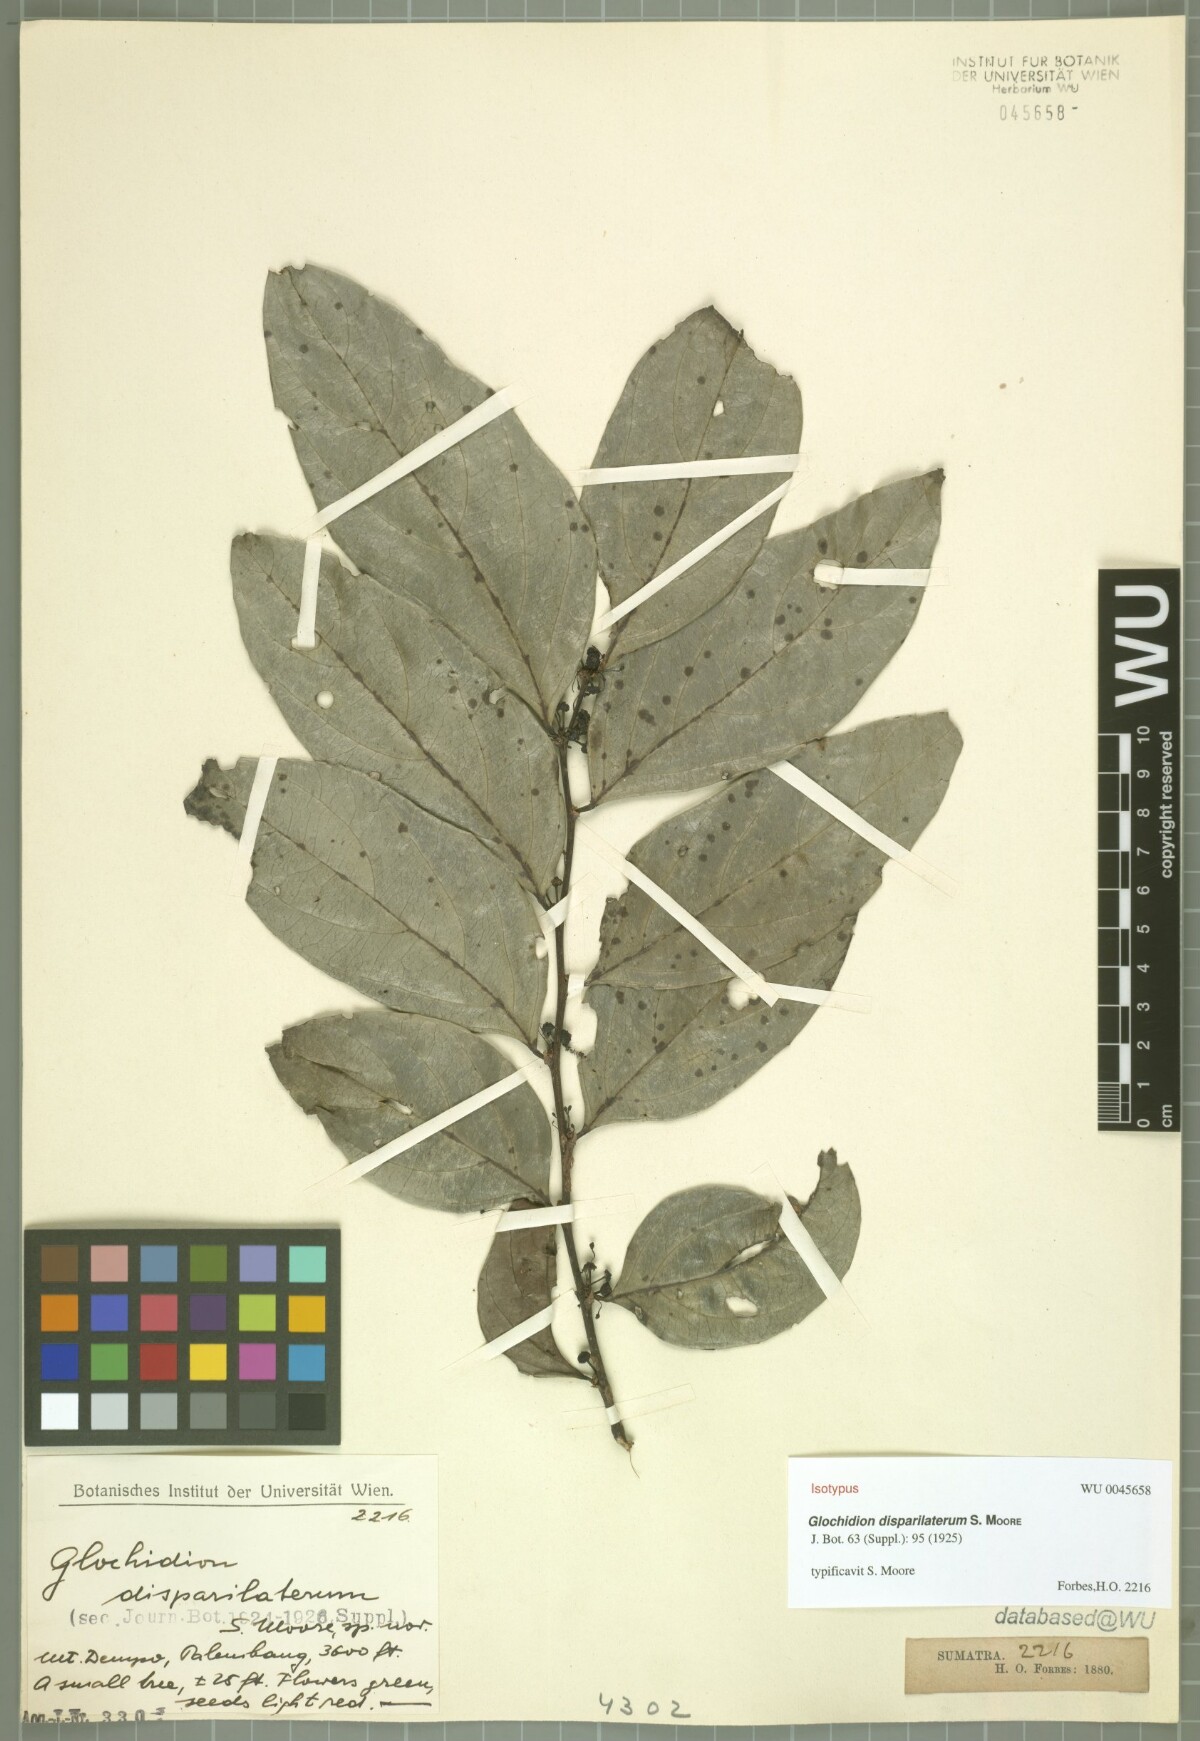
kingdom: Plantae
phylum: Tracheophyta
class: Magnoliopsida
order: Malpighiales
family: Phyllanthaceae
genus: Glochidion
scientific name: Glochidion disparilaterum
